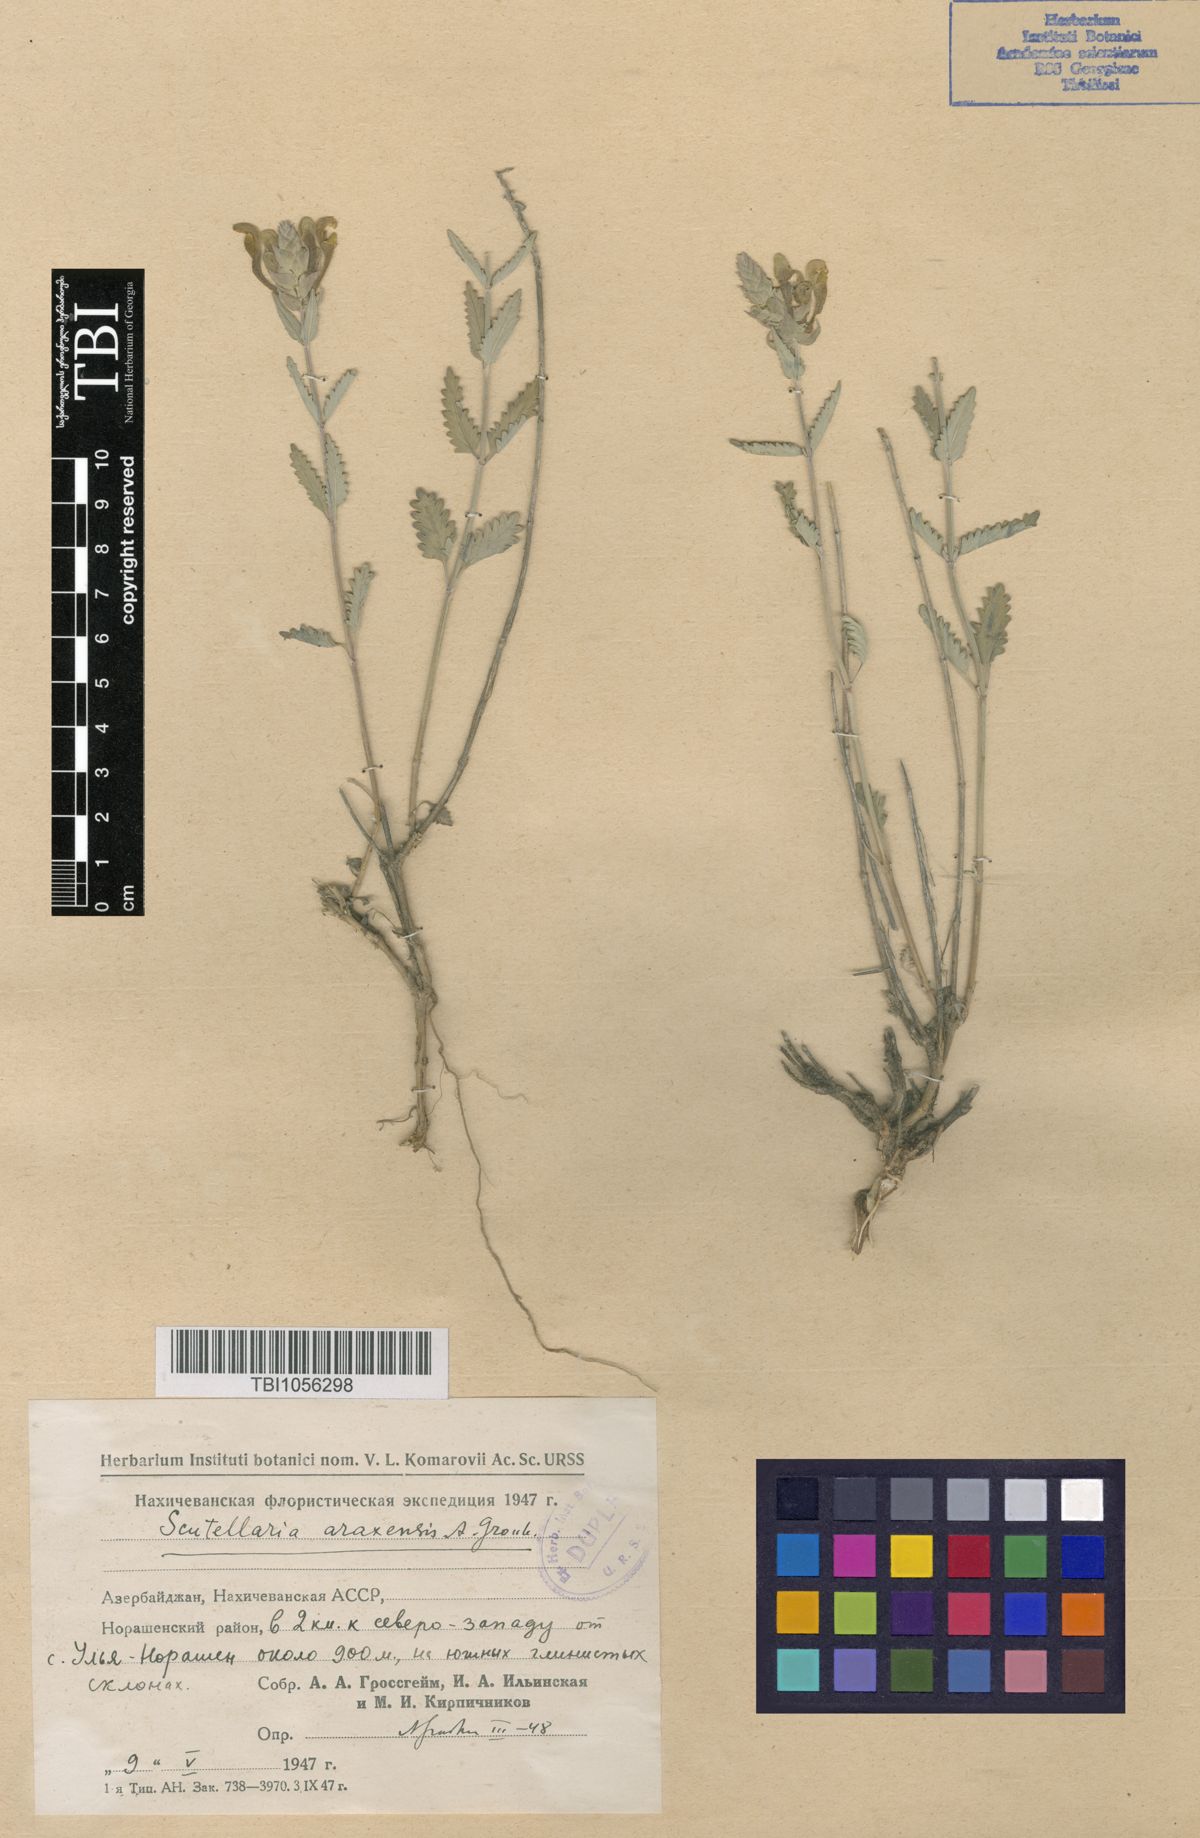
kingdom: Plantae
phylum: Tracheophyta
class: Magnoliopsida
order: Lamiales
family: Lamiaceae
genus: Scutellaria
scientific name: Scutellaria araxensis
